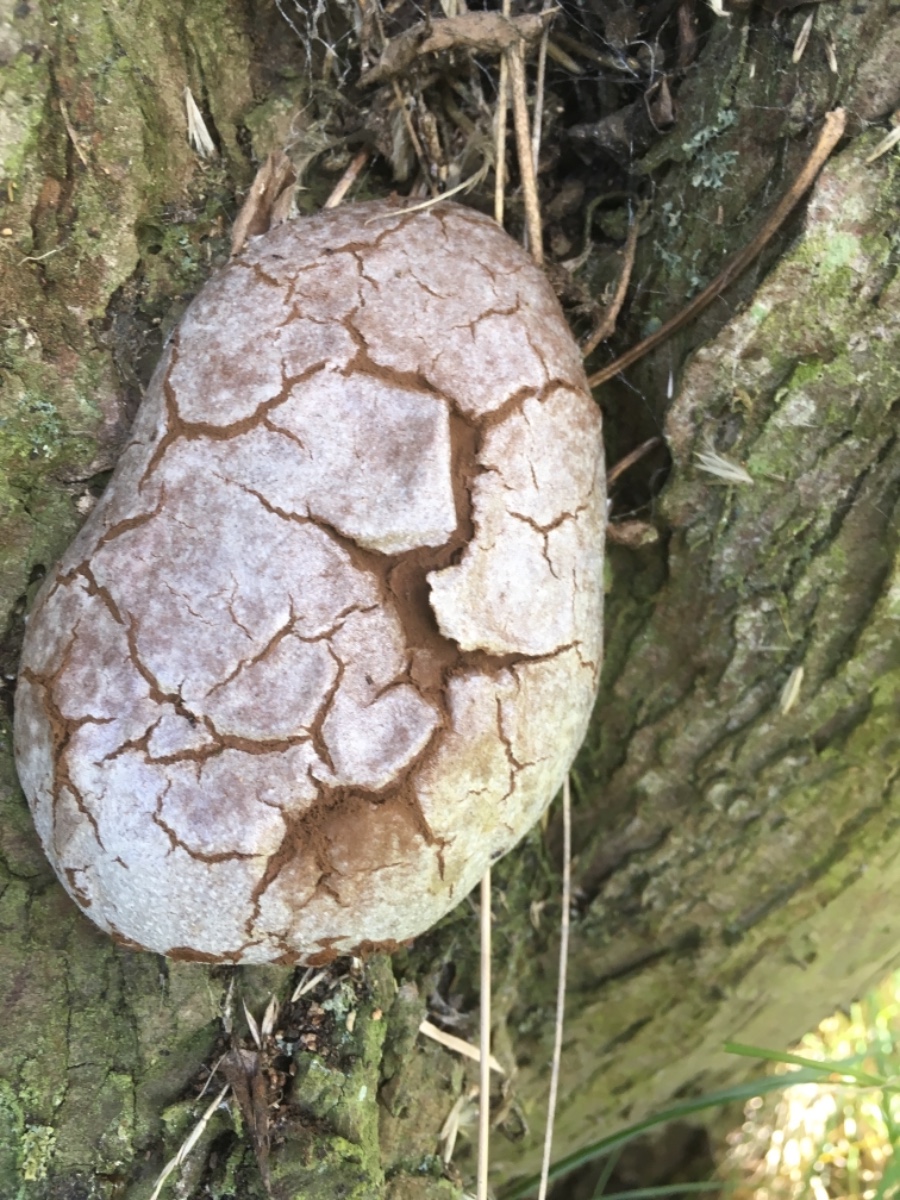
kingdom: Protozoa
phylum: Mycetozoa
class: Myxomycetes
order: Cribrariales
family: Tubiferaceae
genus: Reticularia
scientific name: Reticularia lycoperdon
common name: skinnende støvpude
